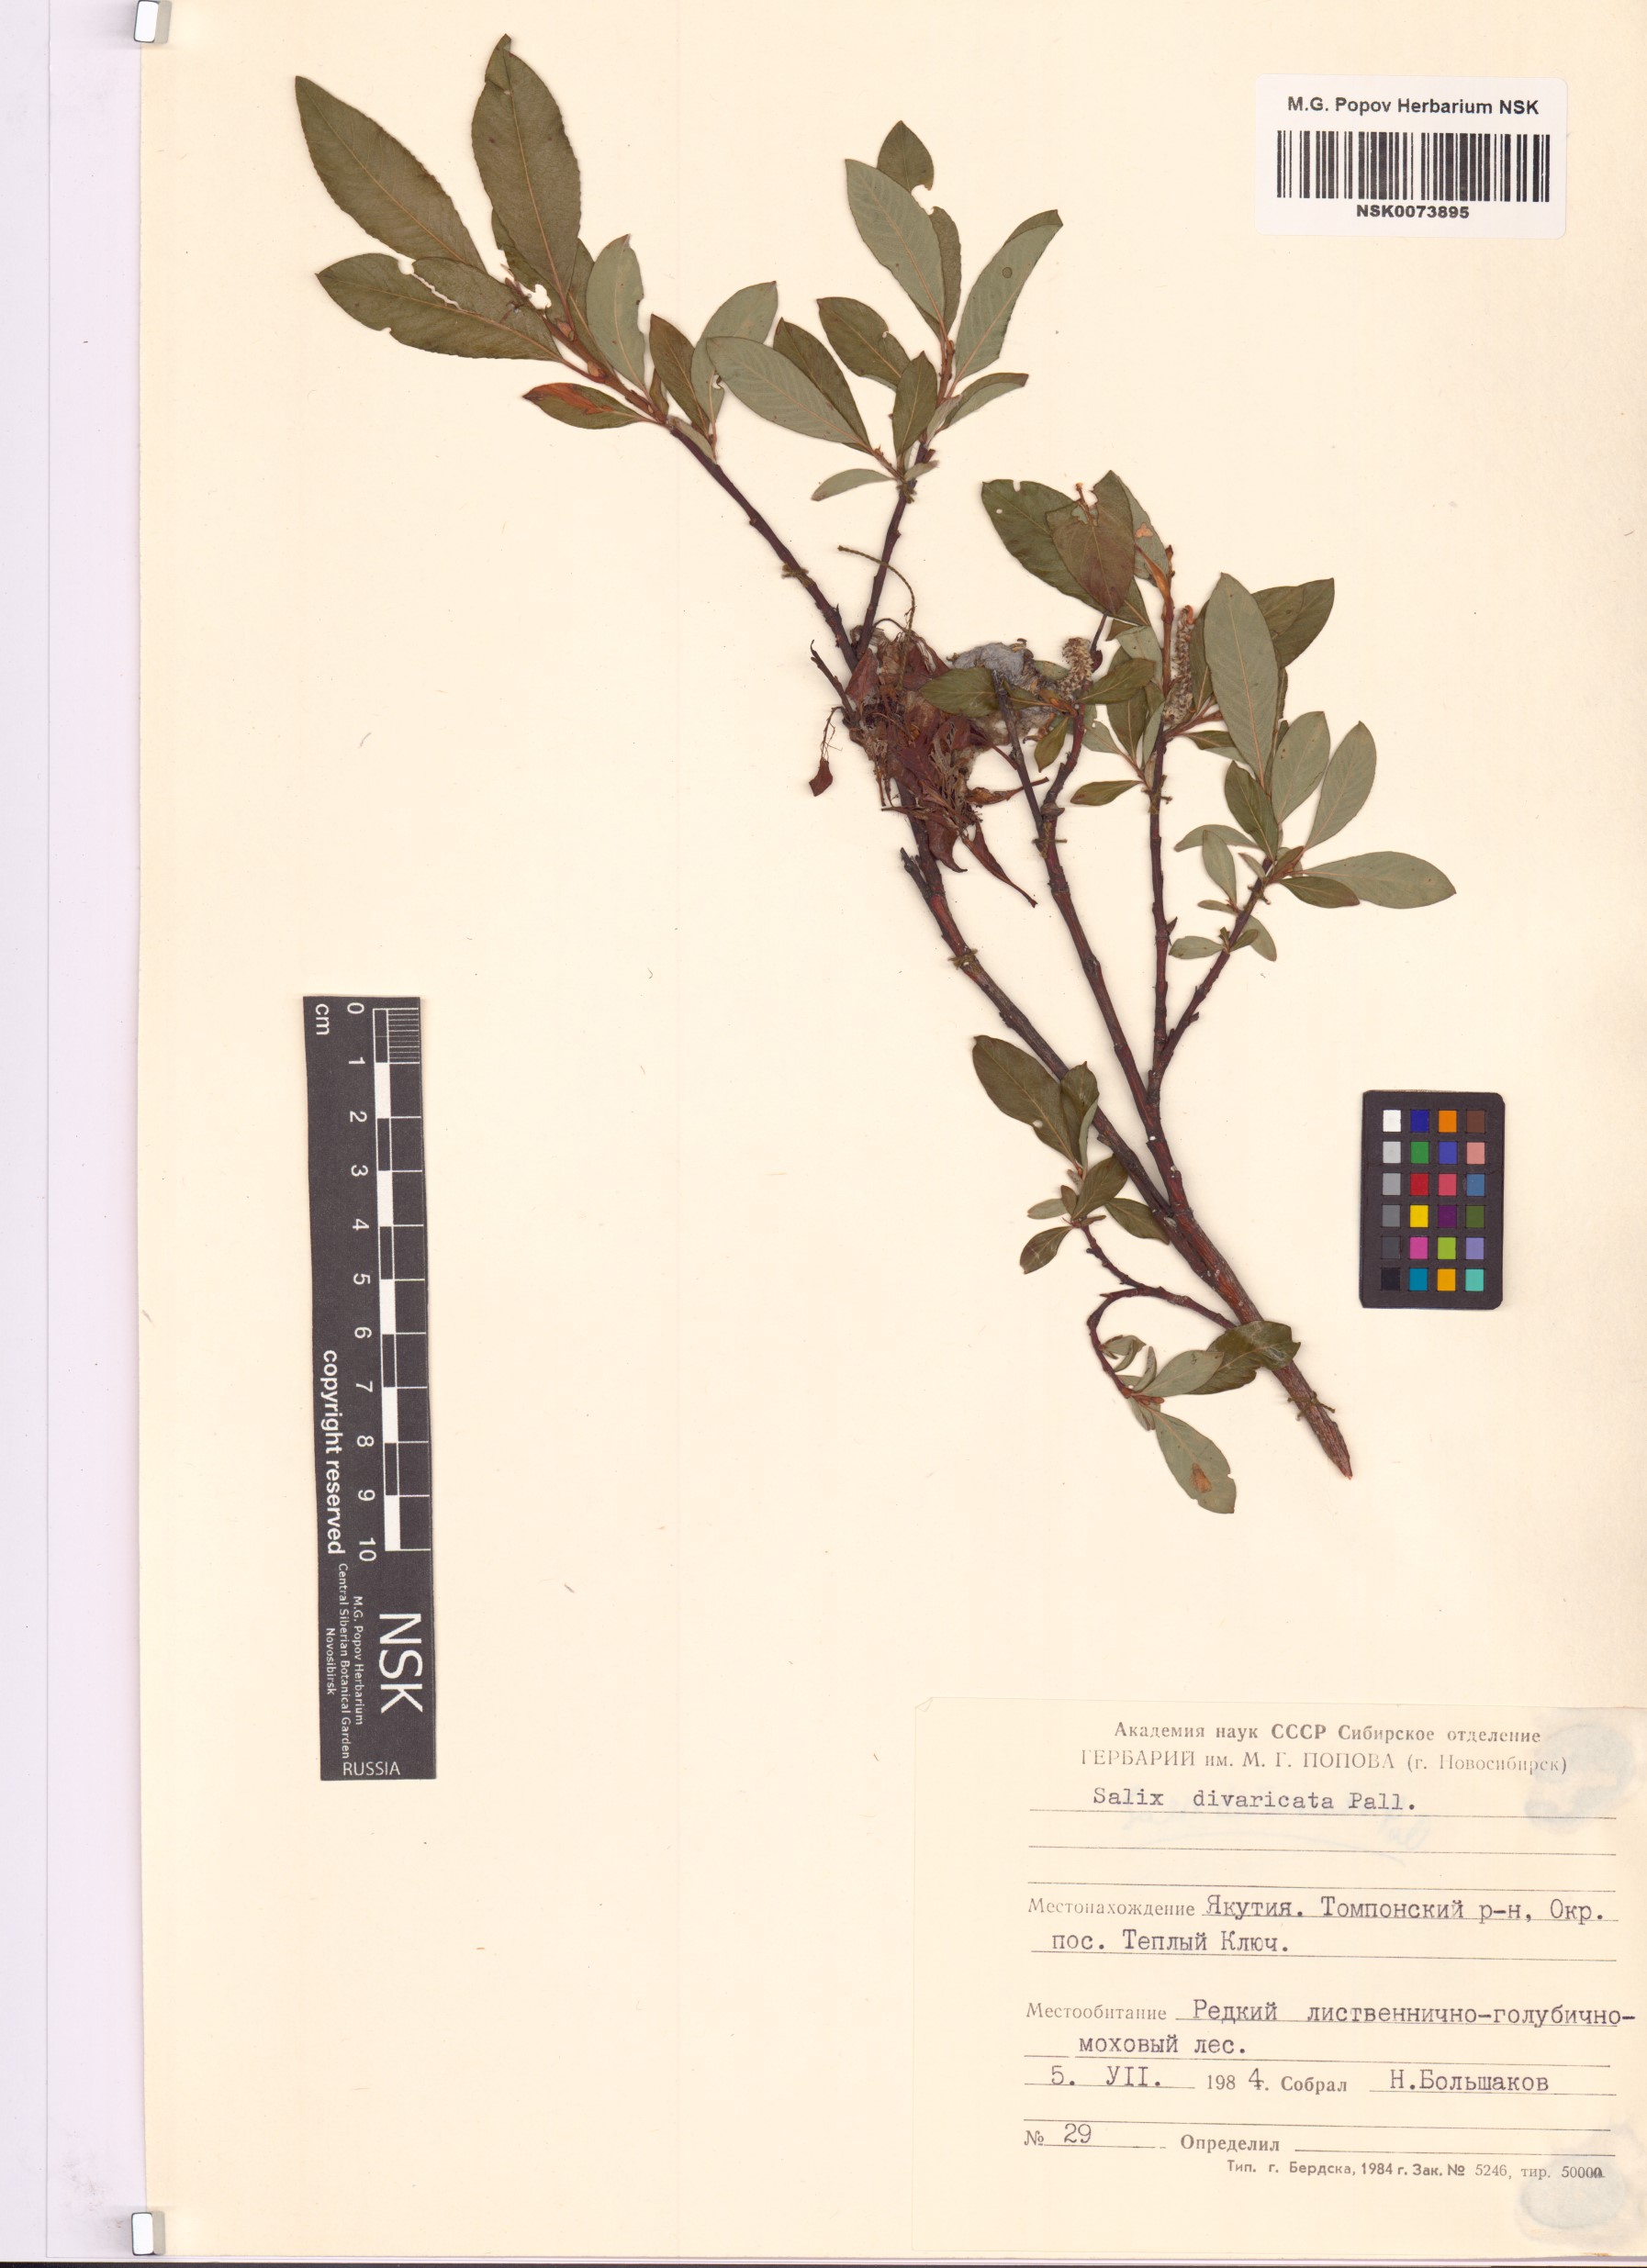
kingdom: Plantae
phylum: Tracheophyta
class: Magnoliopsida
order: Malpighiales
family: Salicaceae
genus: Salix
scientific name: Salix divaricata
